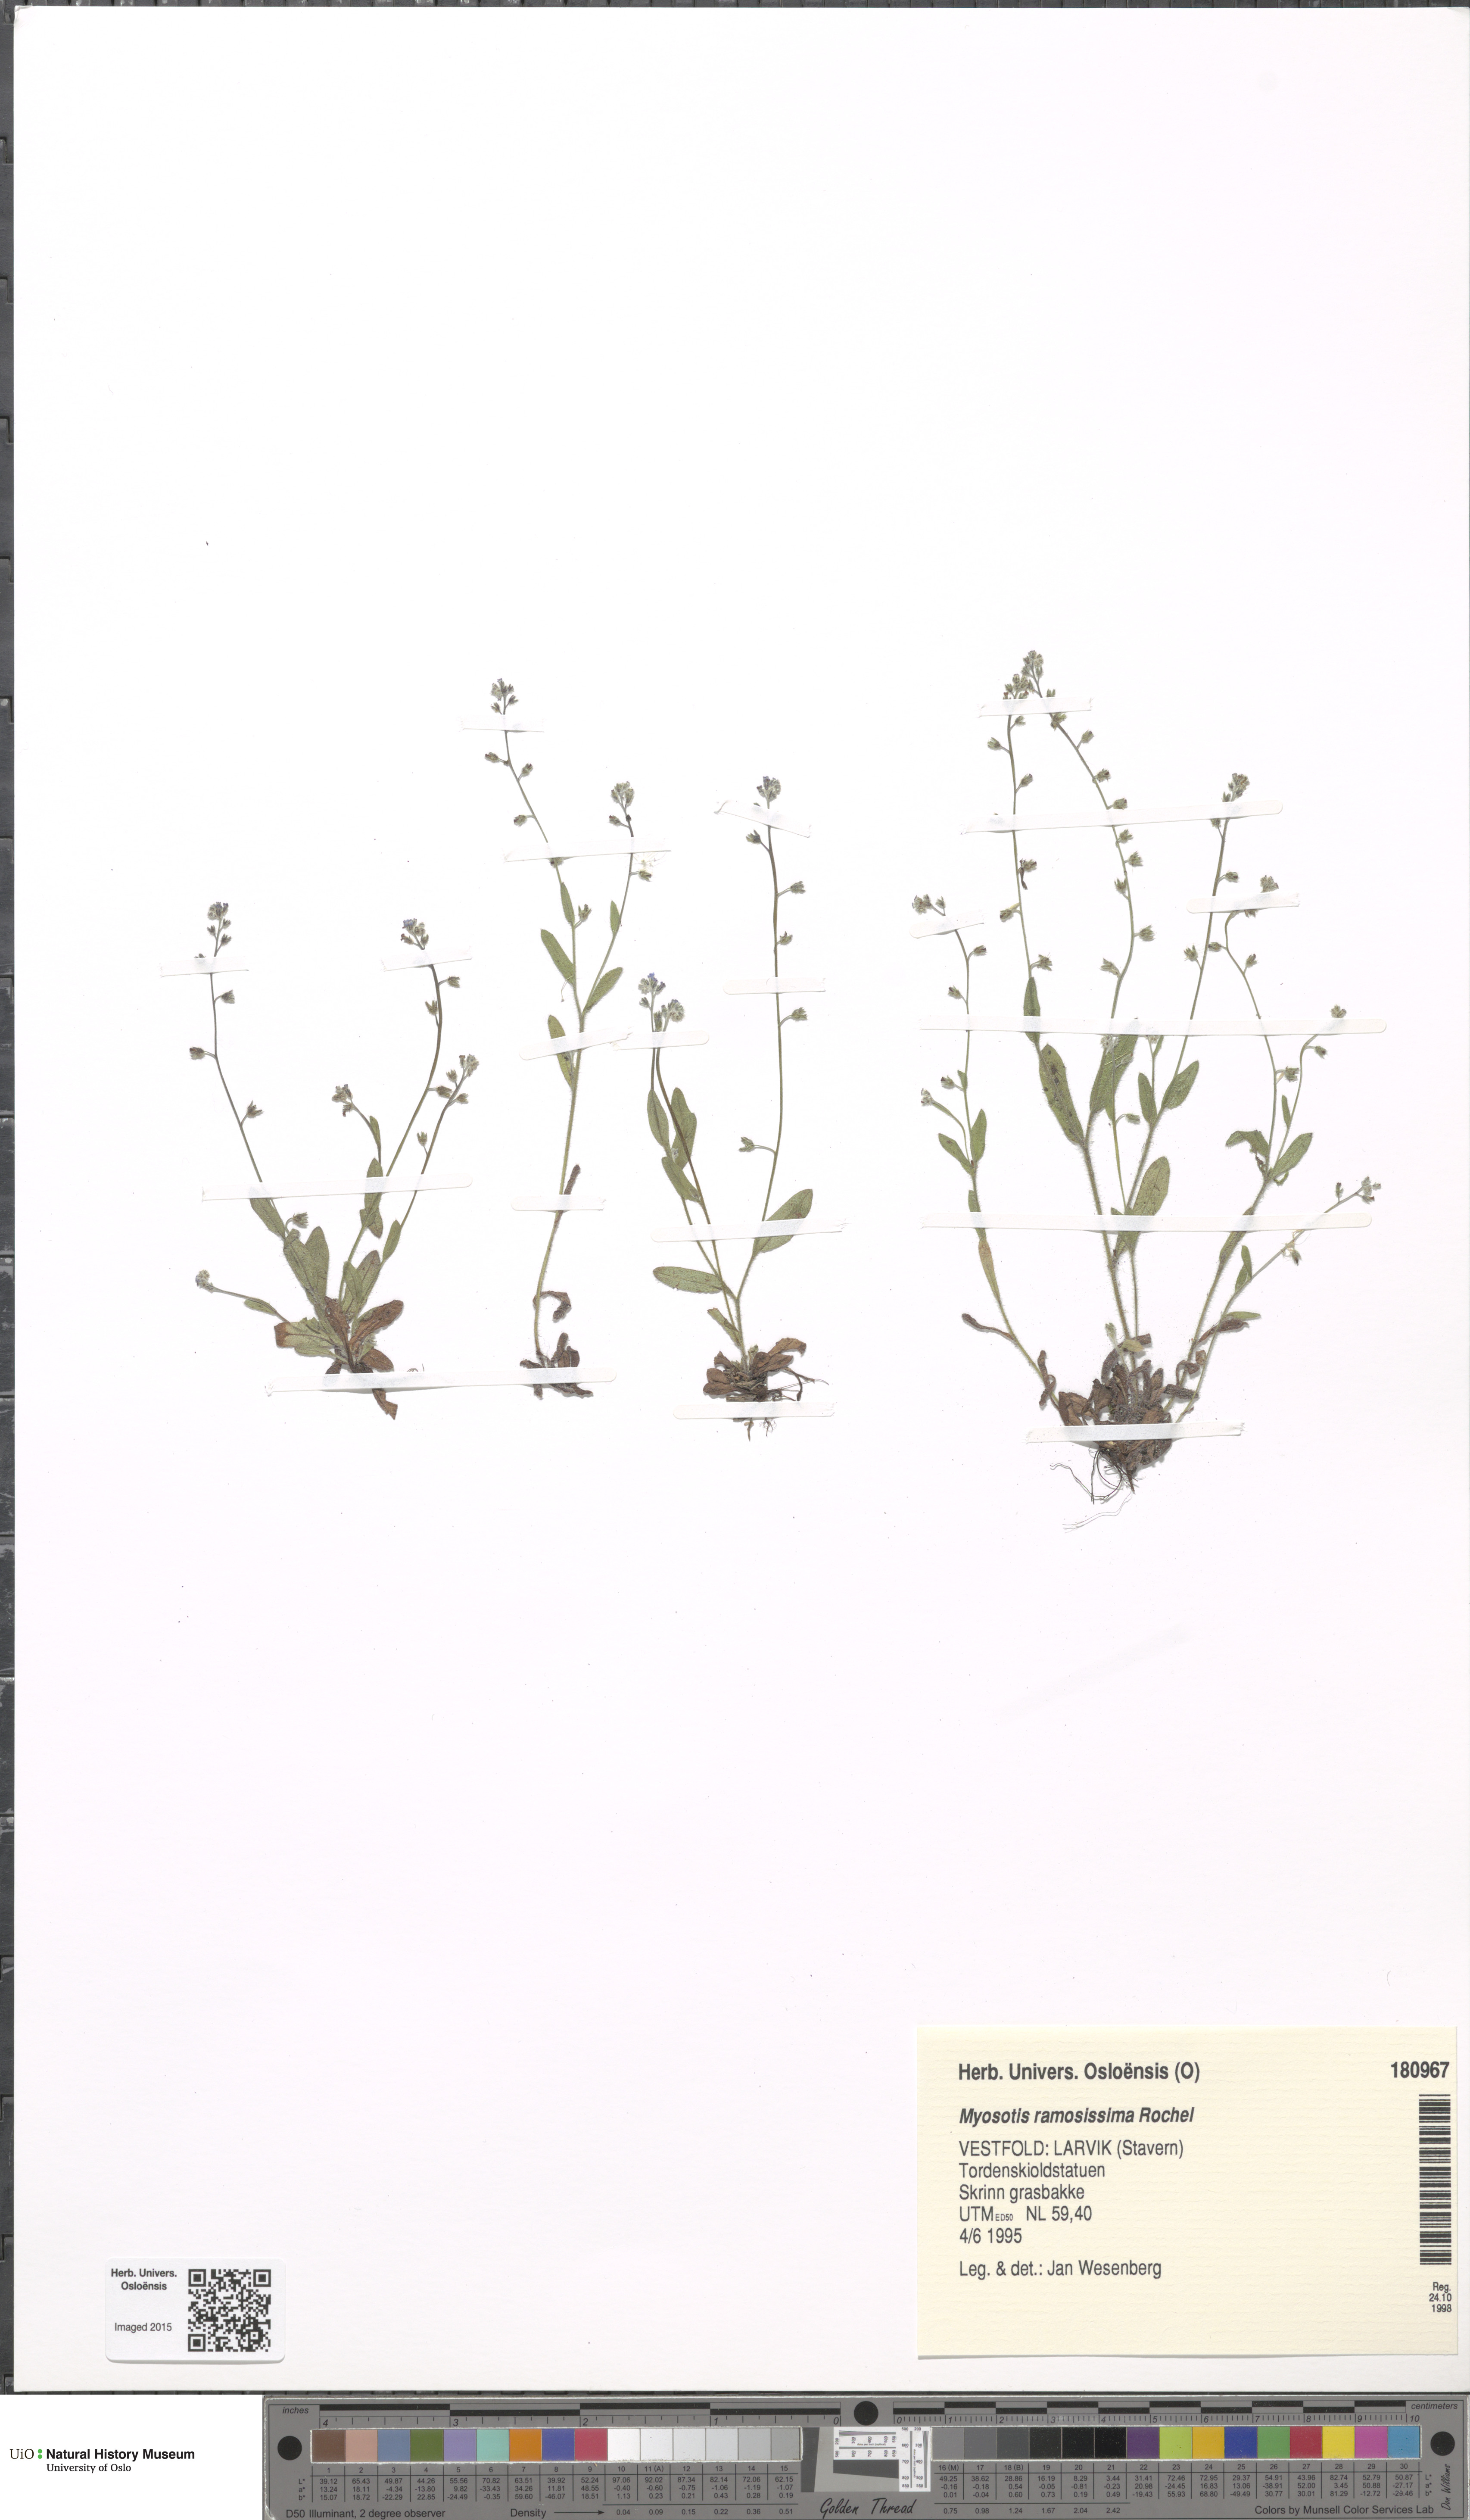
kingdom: Plantae
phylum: Tracheophyta
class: Magnoliopsida
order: Boraginales
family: Boraginaceae
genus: Myosotis
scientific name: Myosotis ramosissima
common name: Early forget-me-not
